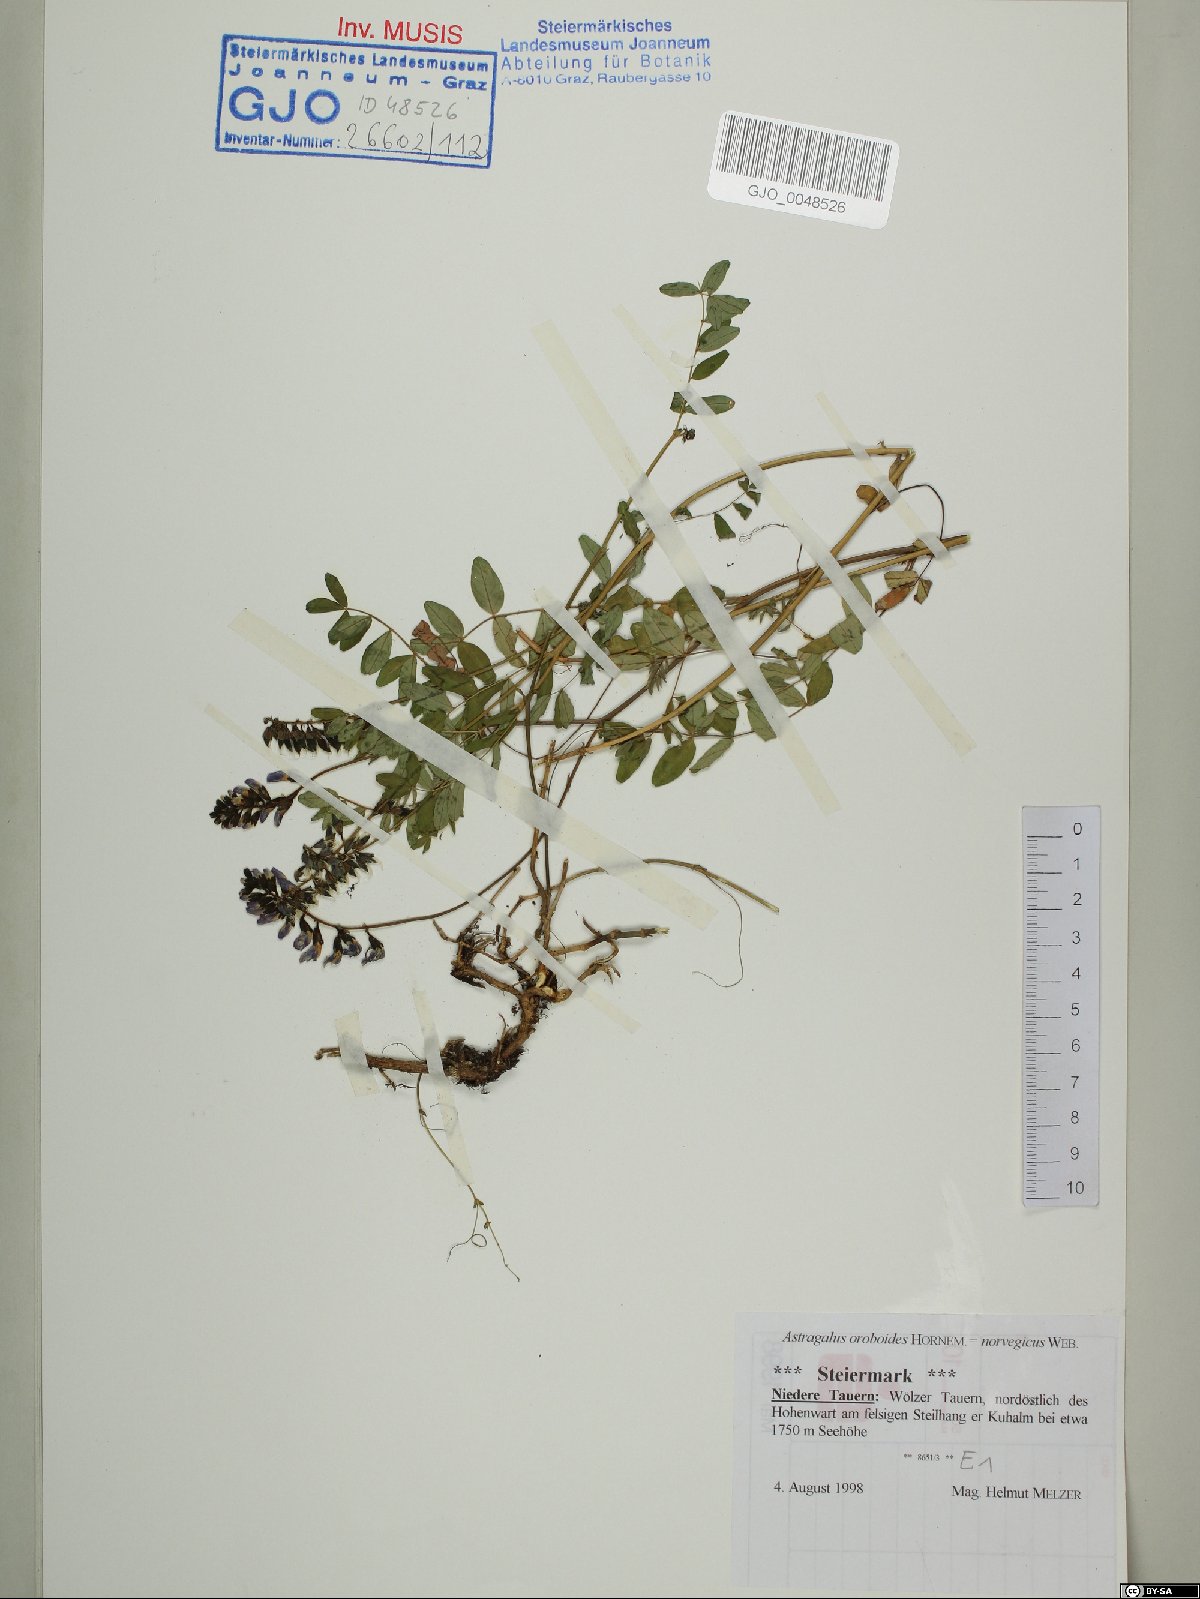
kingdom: Plantae
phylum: Tracheophyta
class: Magnoliopsida
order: Fabales
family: Fabaceae
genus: Astragalus
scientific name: Astragalus norvegicus
